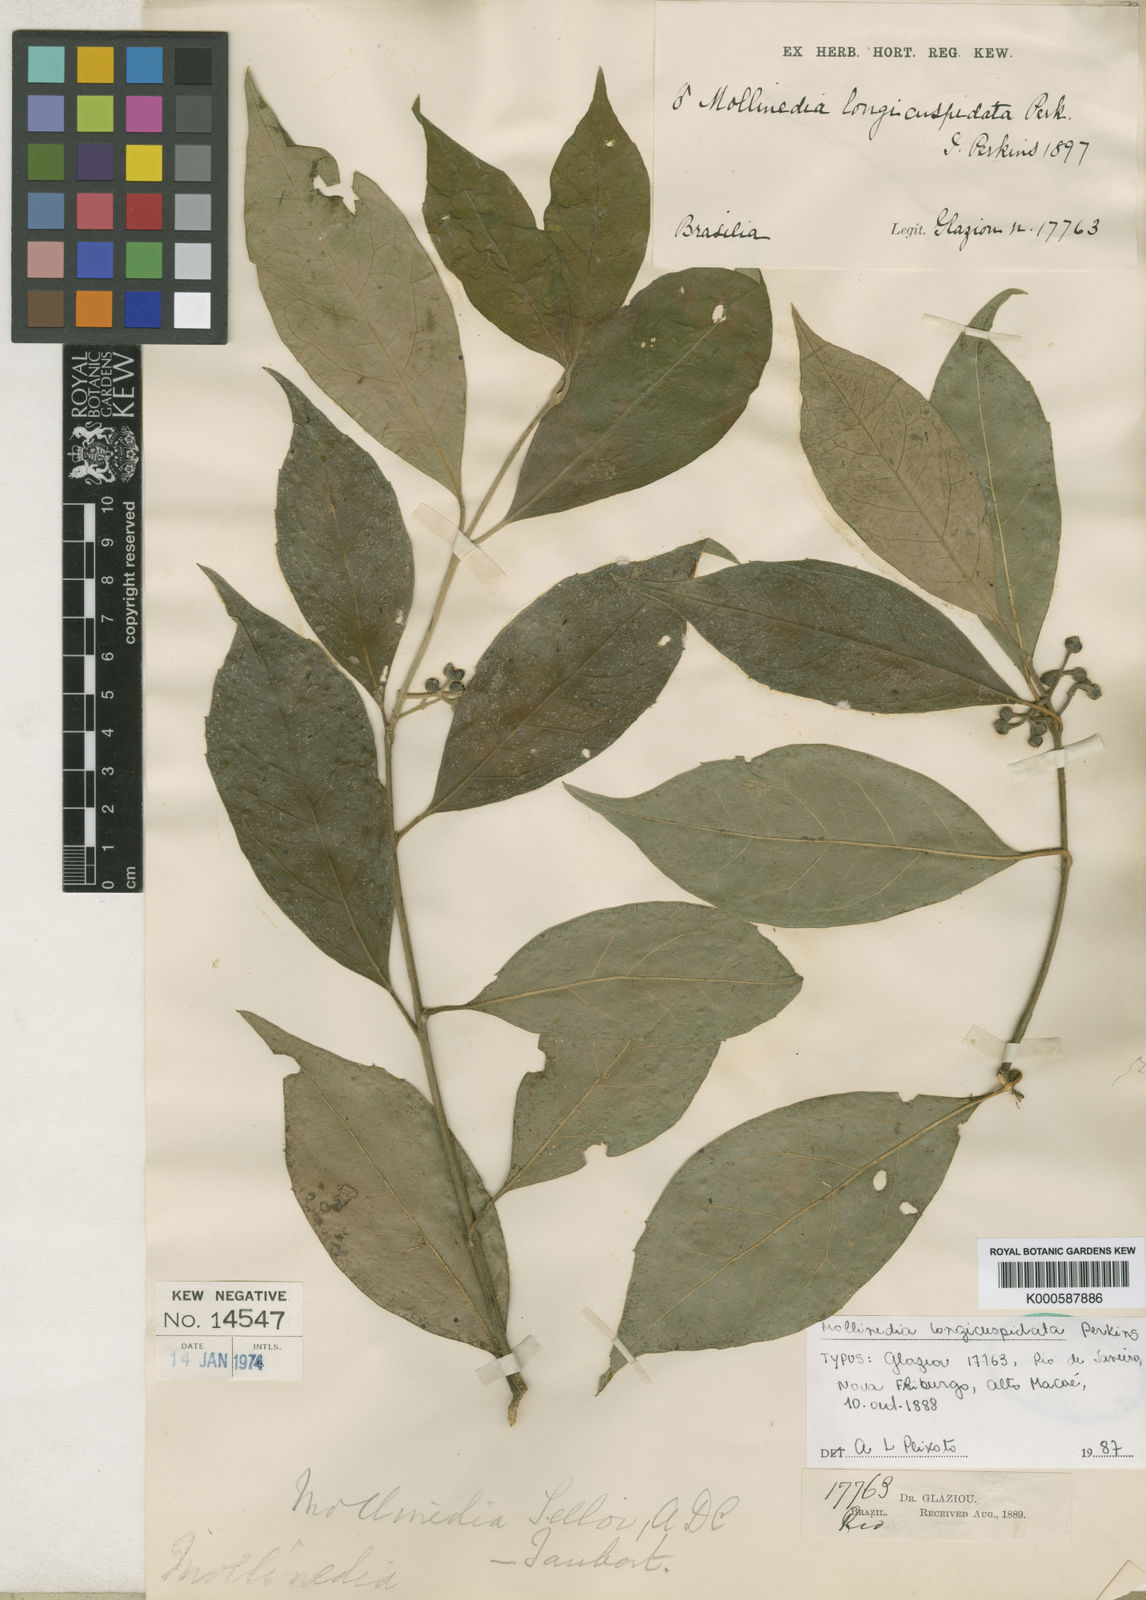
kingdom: Plantae
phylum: Tracheophyta
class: Magnoliopsida
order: Laurales
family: Monimiaceae
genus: Mollinedia
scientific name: Mollinedia longicuspidata
